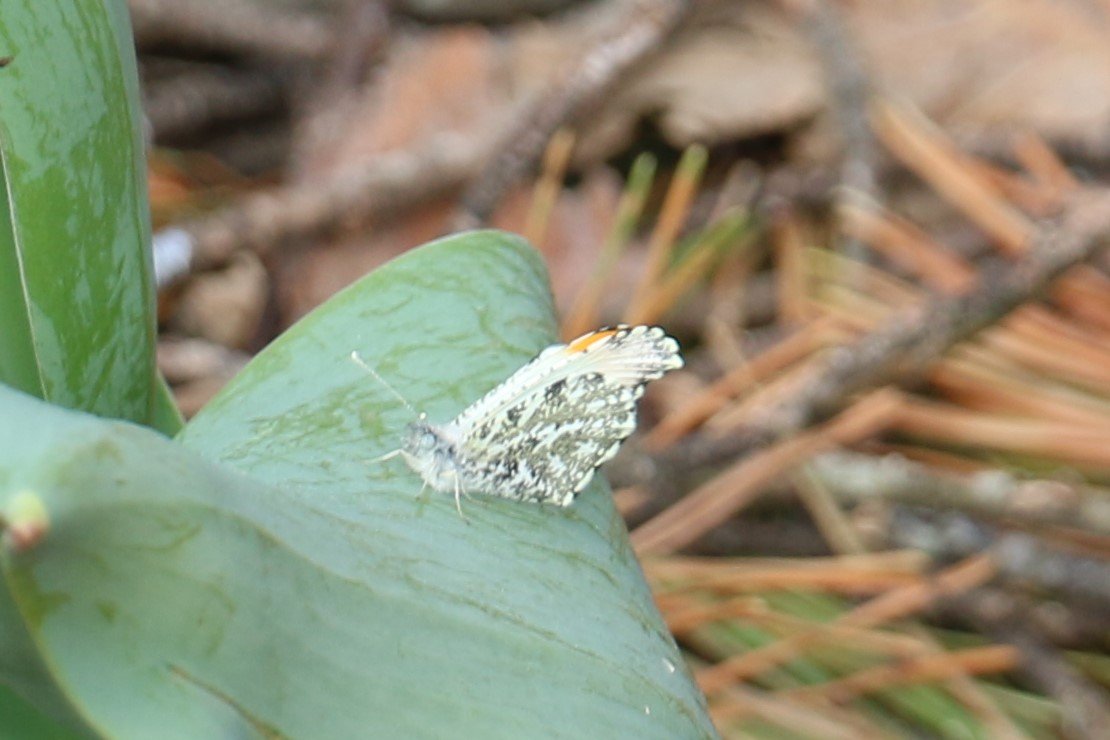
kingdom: Animalia
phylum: Arthropoda
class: Insecta
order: Lepidoptera
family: Pieridae
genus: Anthocharis
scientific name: Anthocharis midea
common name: Falcate Orangetip
